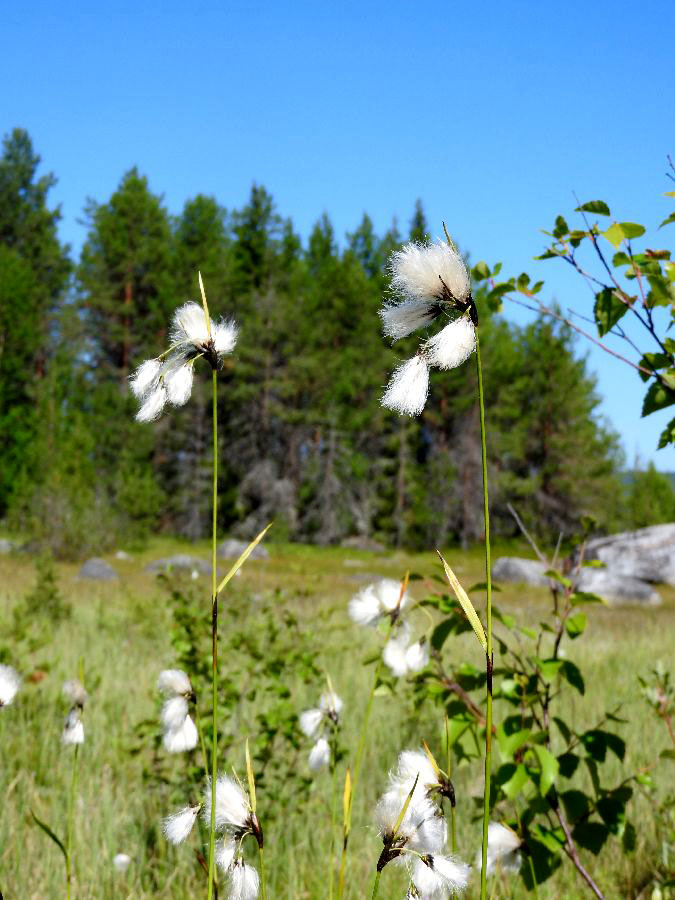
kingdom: Plantae
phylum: Tracheophyta
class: Liliopsida
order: Poales
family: Cyperaceae
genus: Eriophorum
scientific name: Eriophorum latifolium
